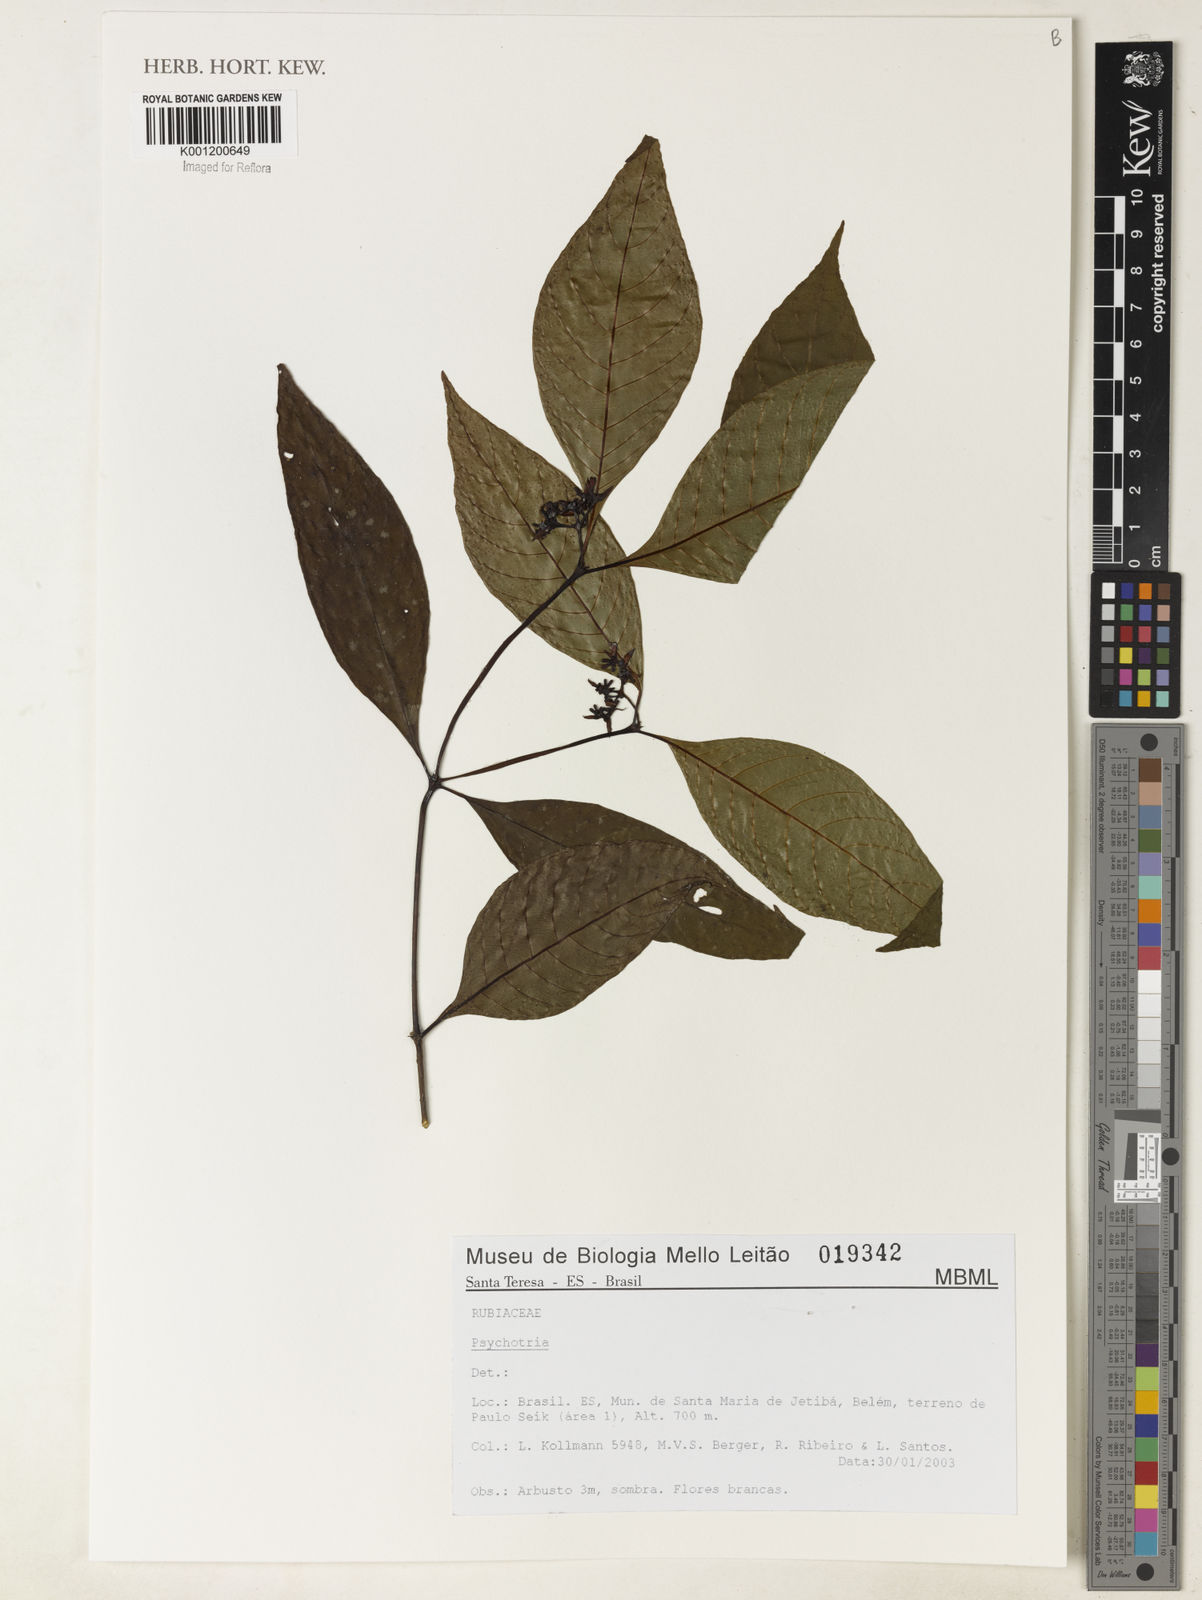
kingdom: Plantae
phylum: Tracheophyta
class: Magnoliopsida
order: Gentianales
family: Rubiaceae
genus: Psychotria
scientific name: Psychotria
